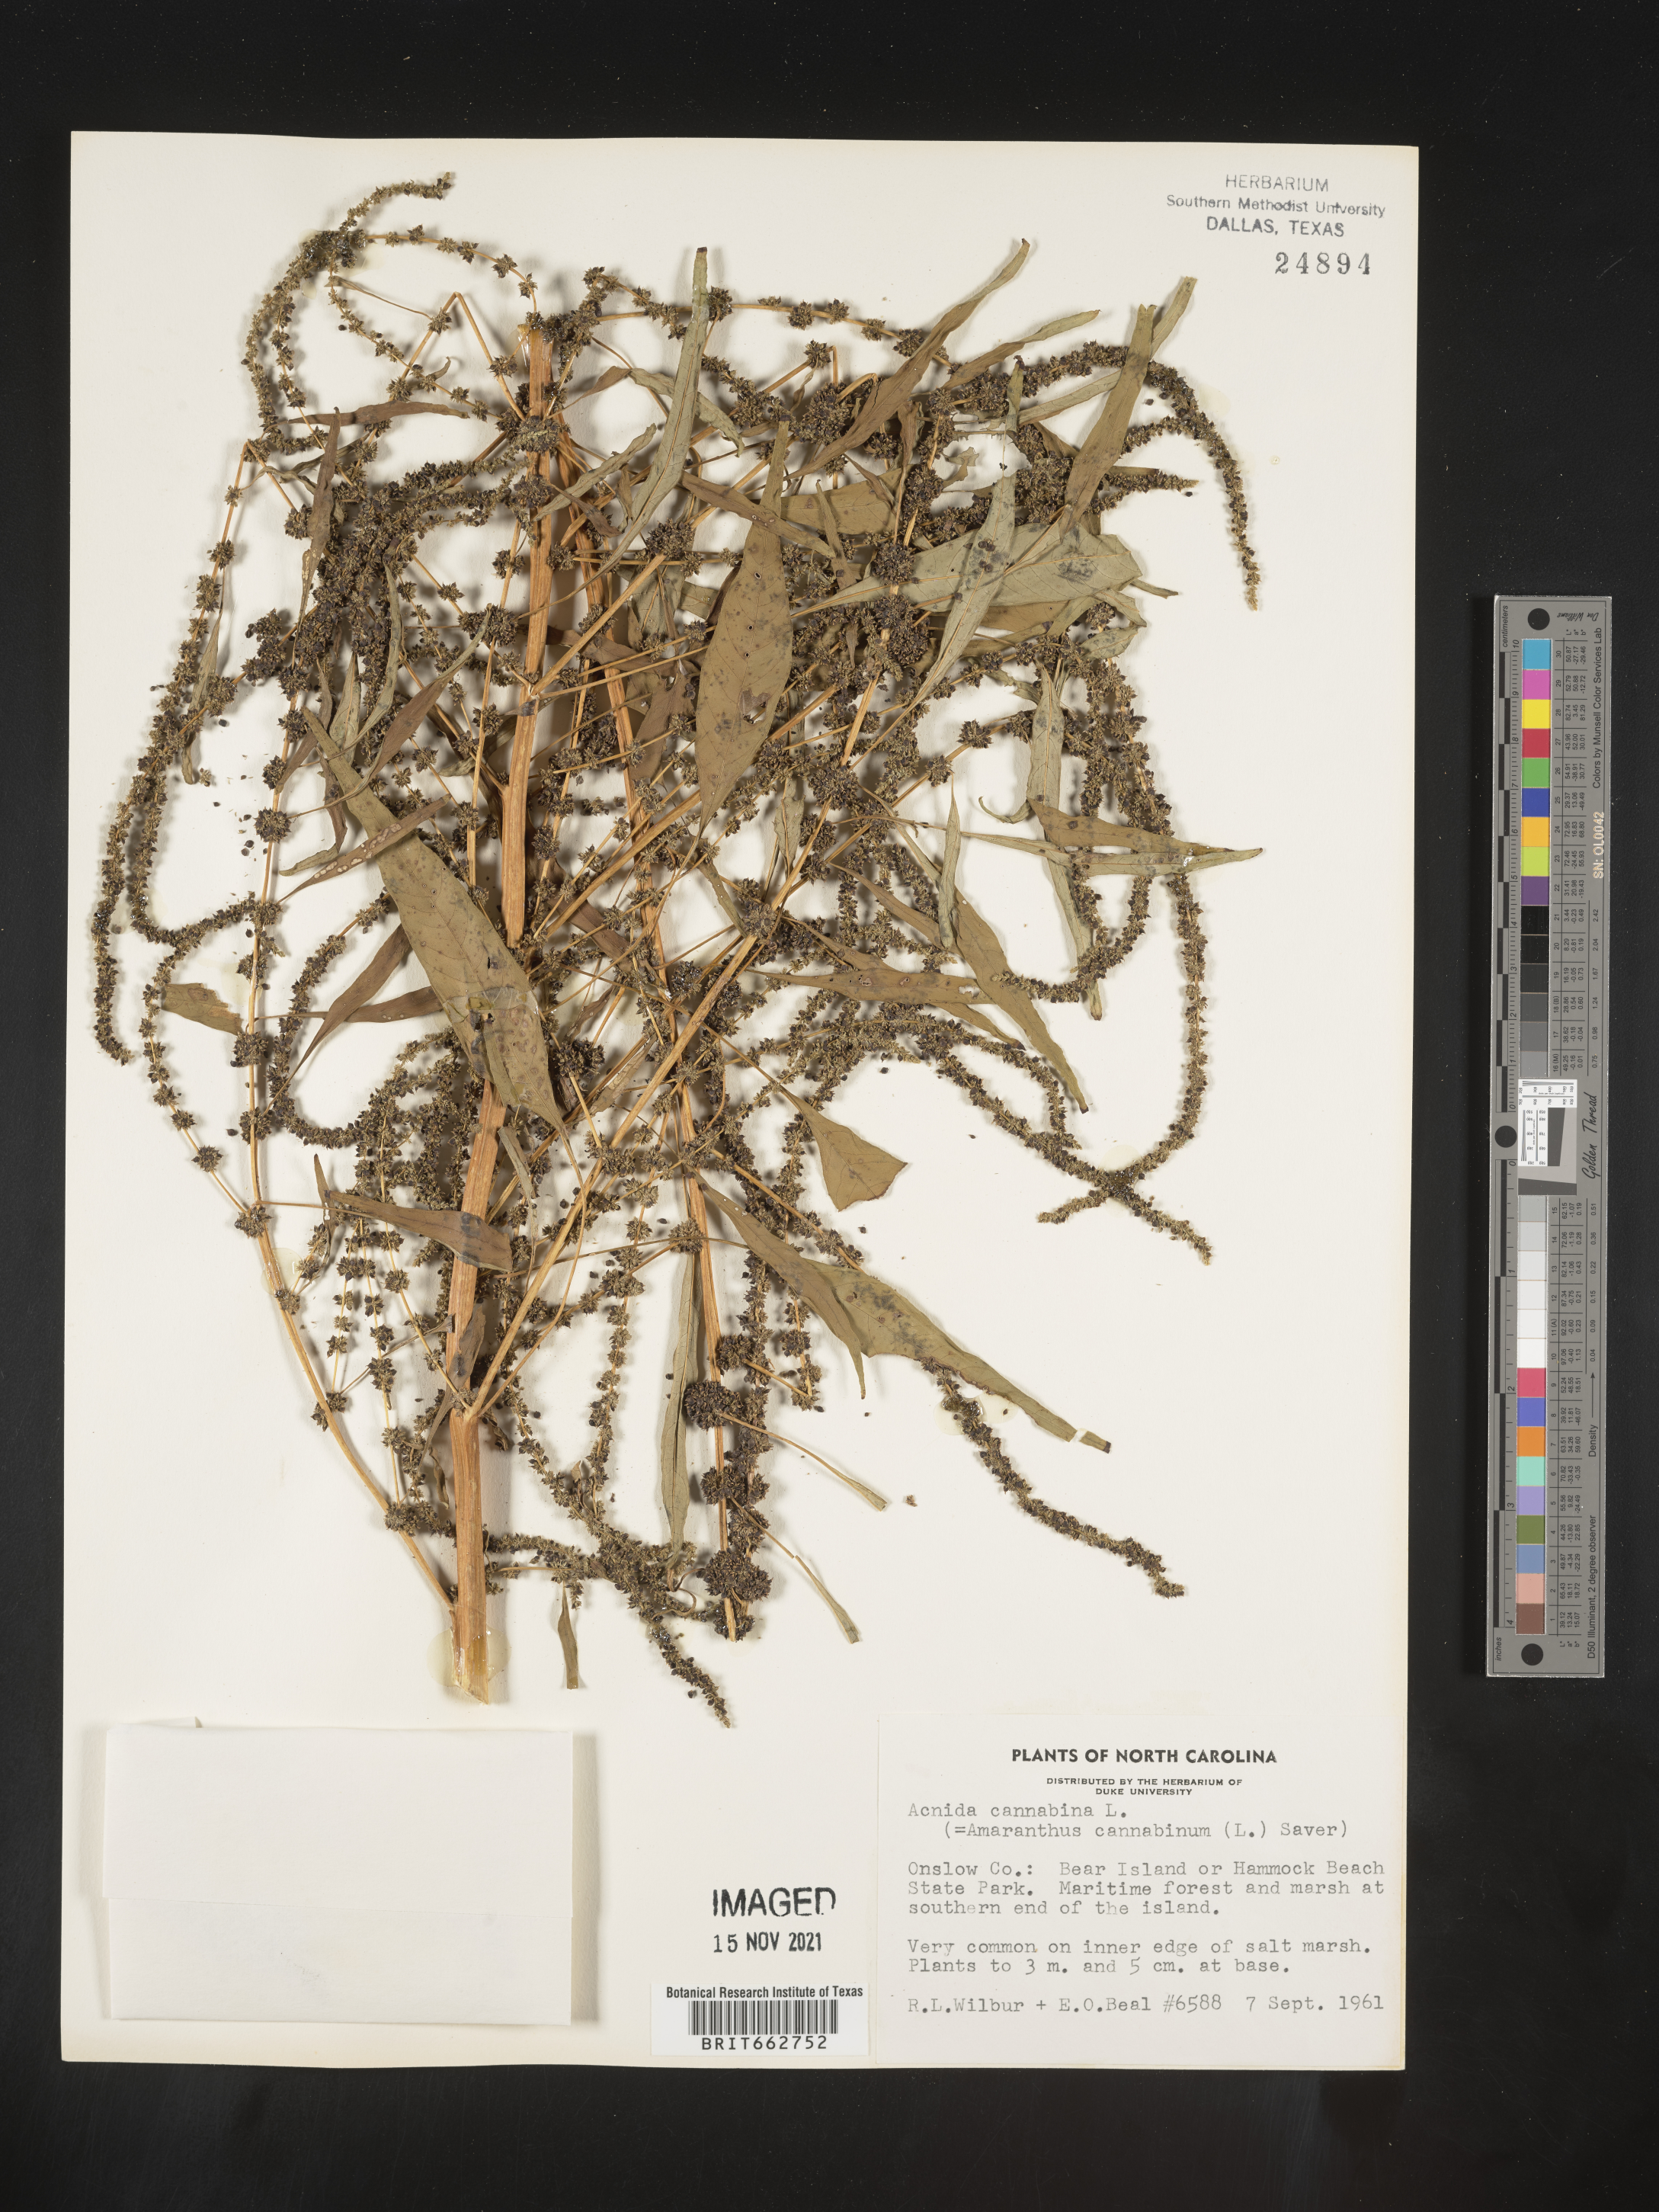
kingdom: Plantae
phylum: Tracheophyta
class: Magnoliopsida
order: Caryophyllales
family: Amaranthaceae
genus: Amaranthus
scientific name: Amaranthus powellii
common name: Powell's amaranth
